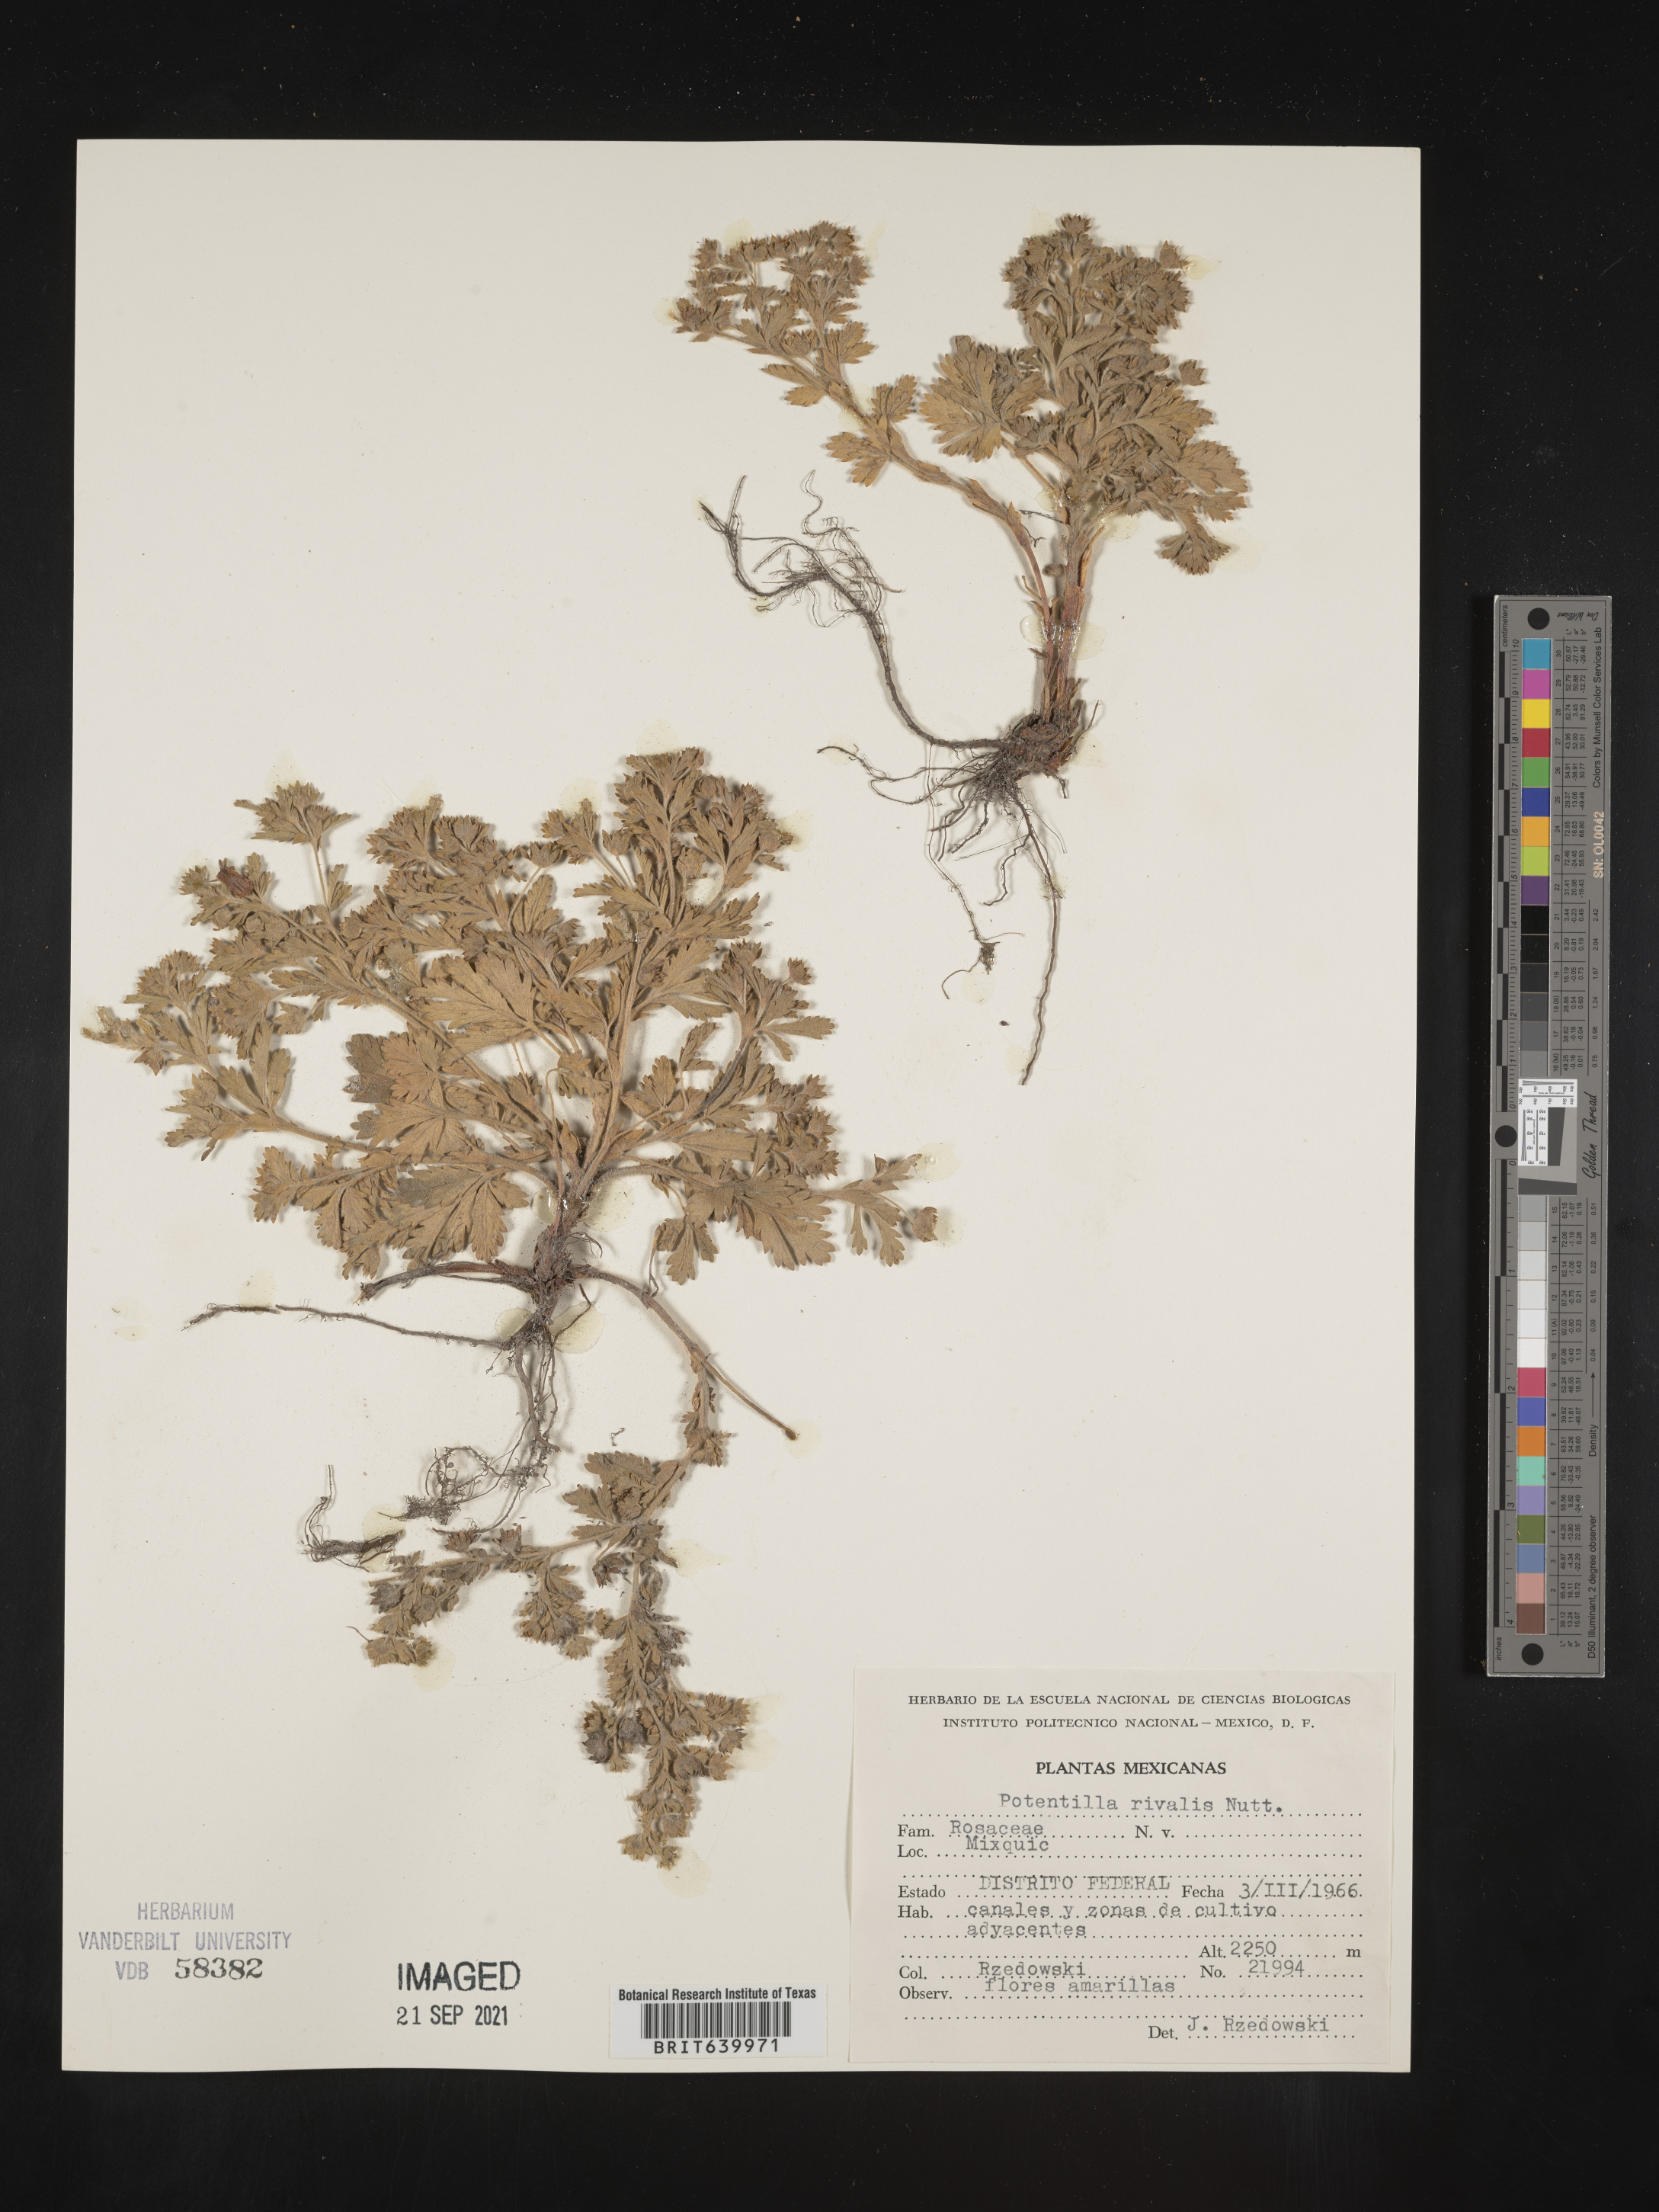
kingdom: Plantae
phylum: Tracheophyta
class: Magnoliopsida
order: Rosales
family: Rosaceae
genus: Potentilla
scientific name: Potentilla
